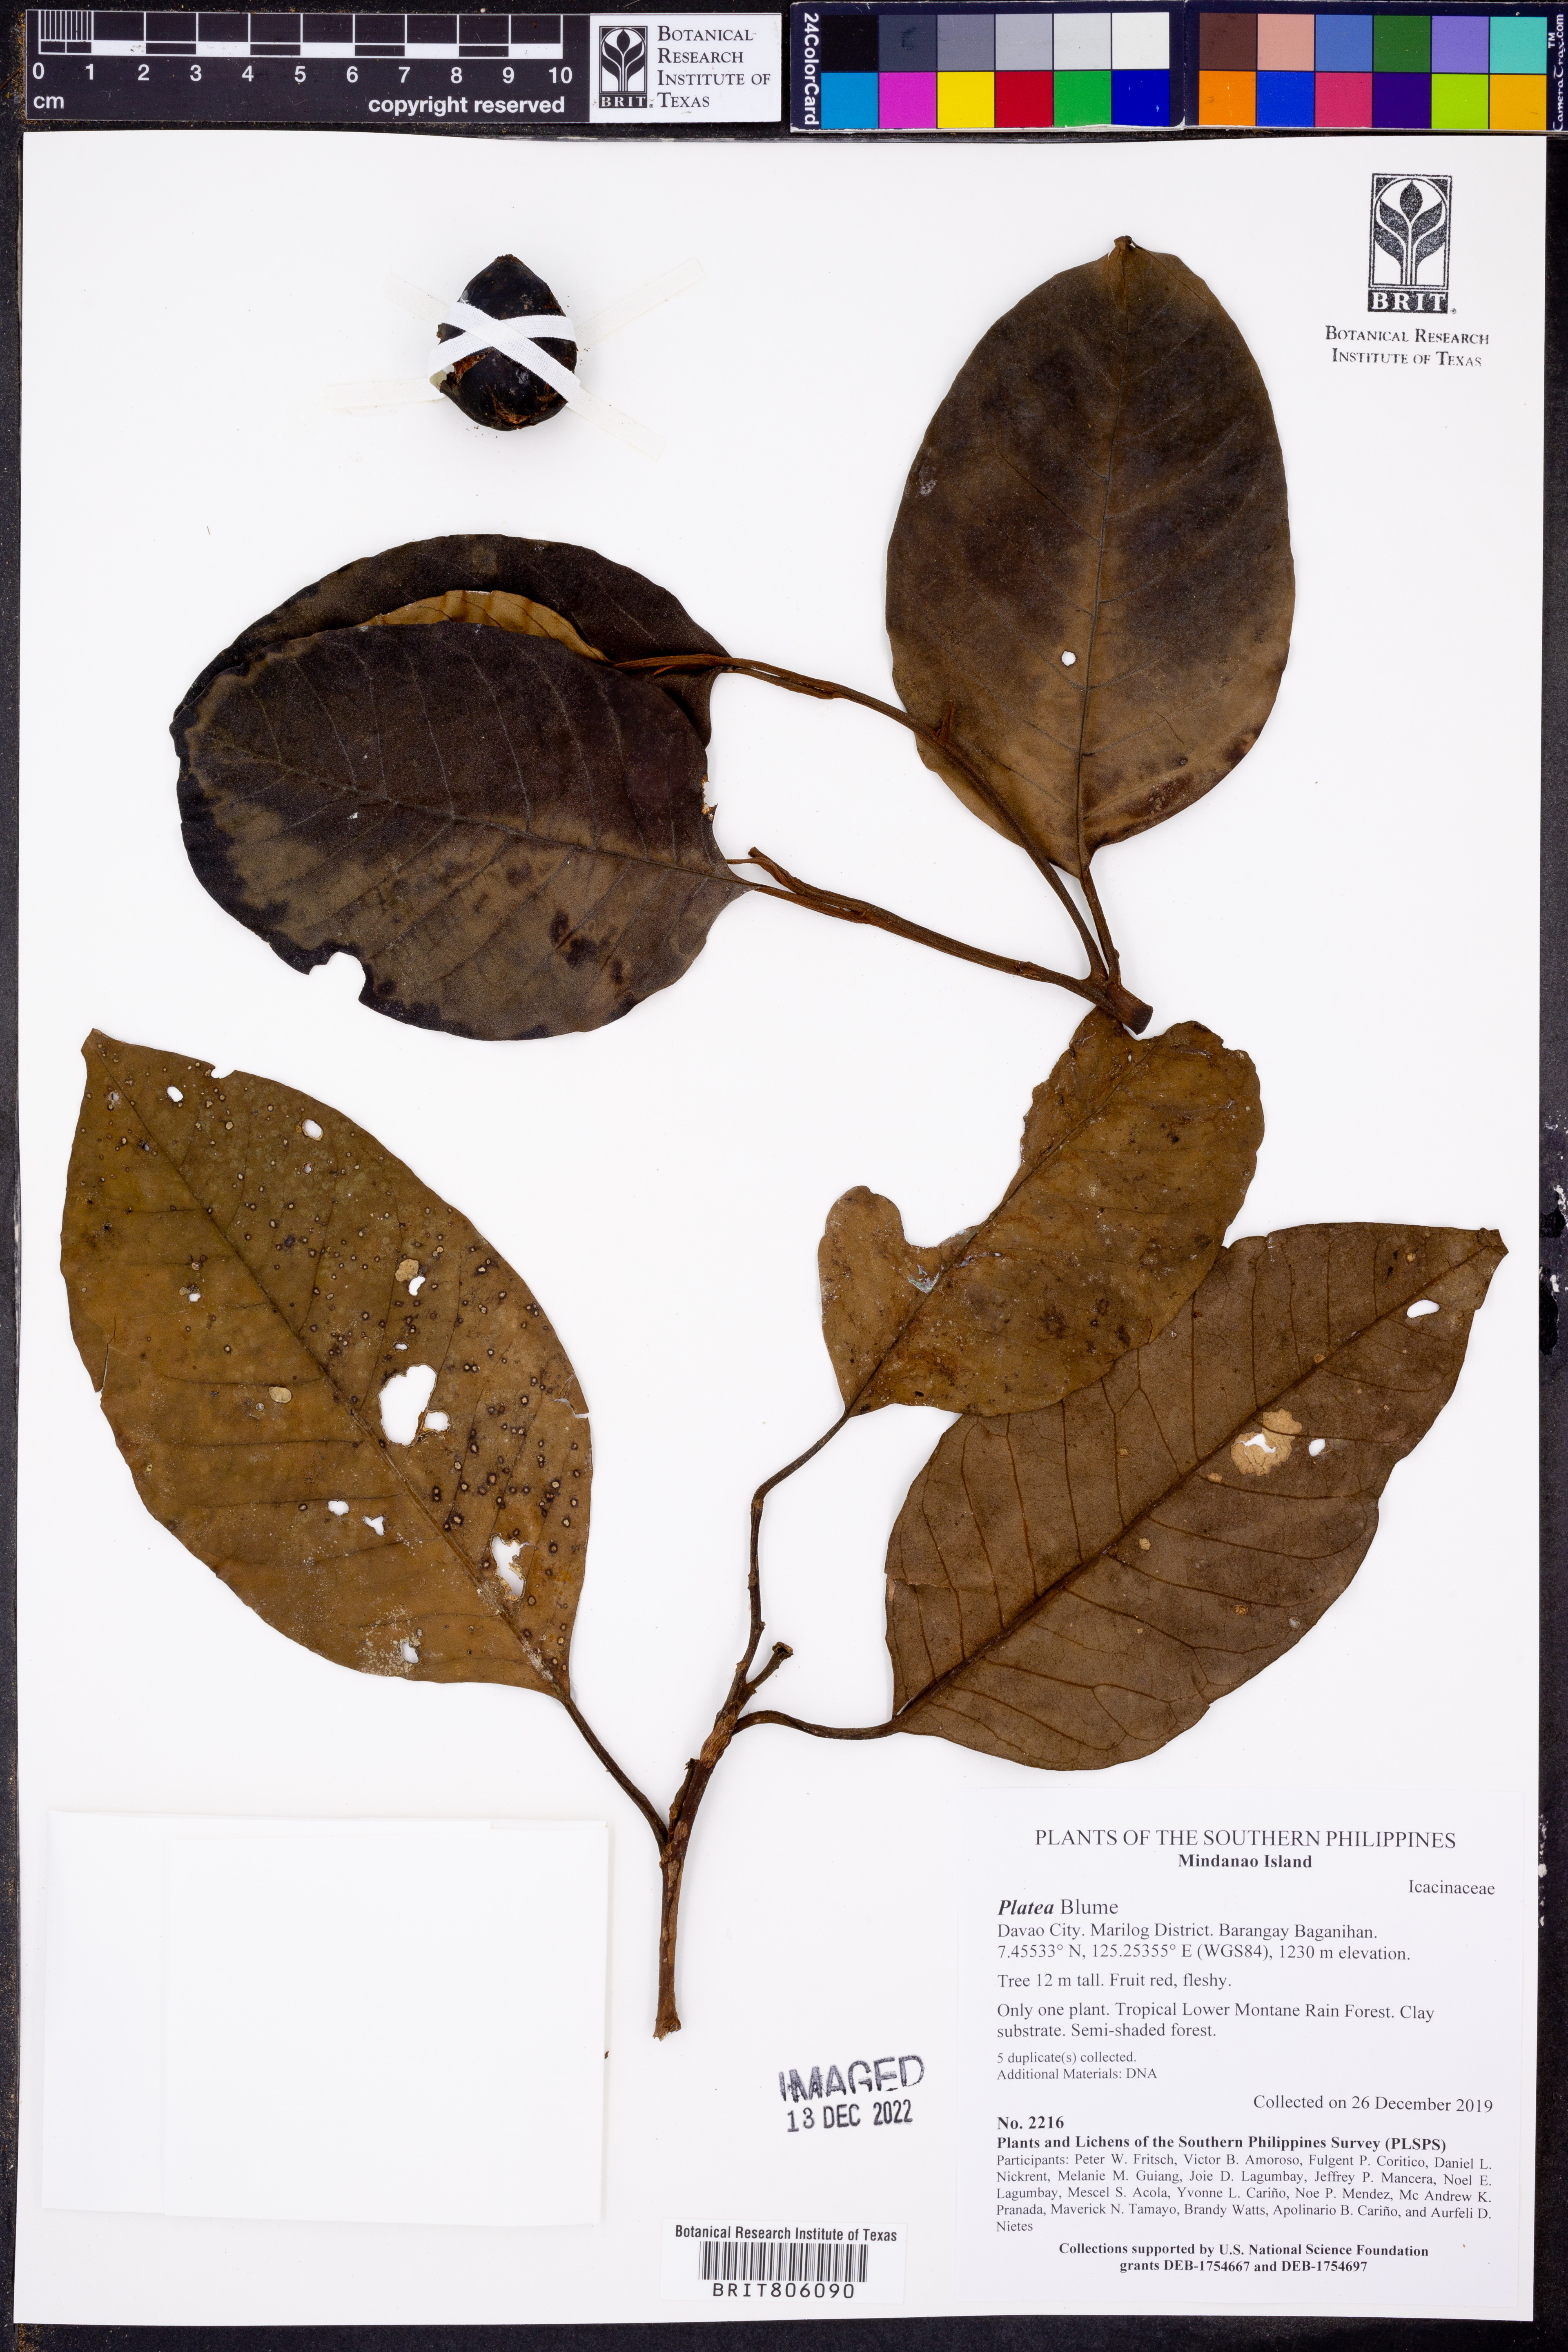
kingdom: Plantae
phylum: Tracheophyta
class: Magnoliopsida
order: Cardiopteridales
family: Stemonuraceae
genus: Platea
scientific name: Platea
